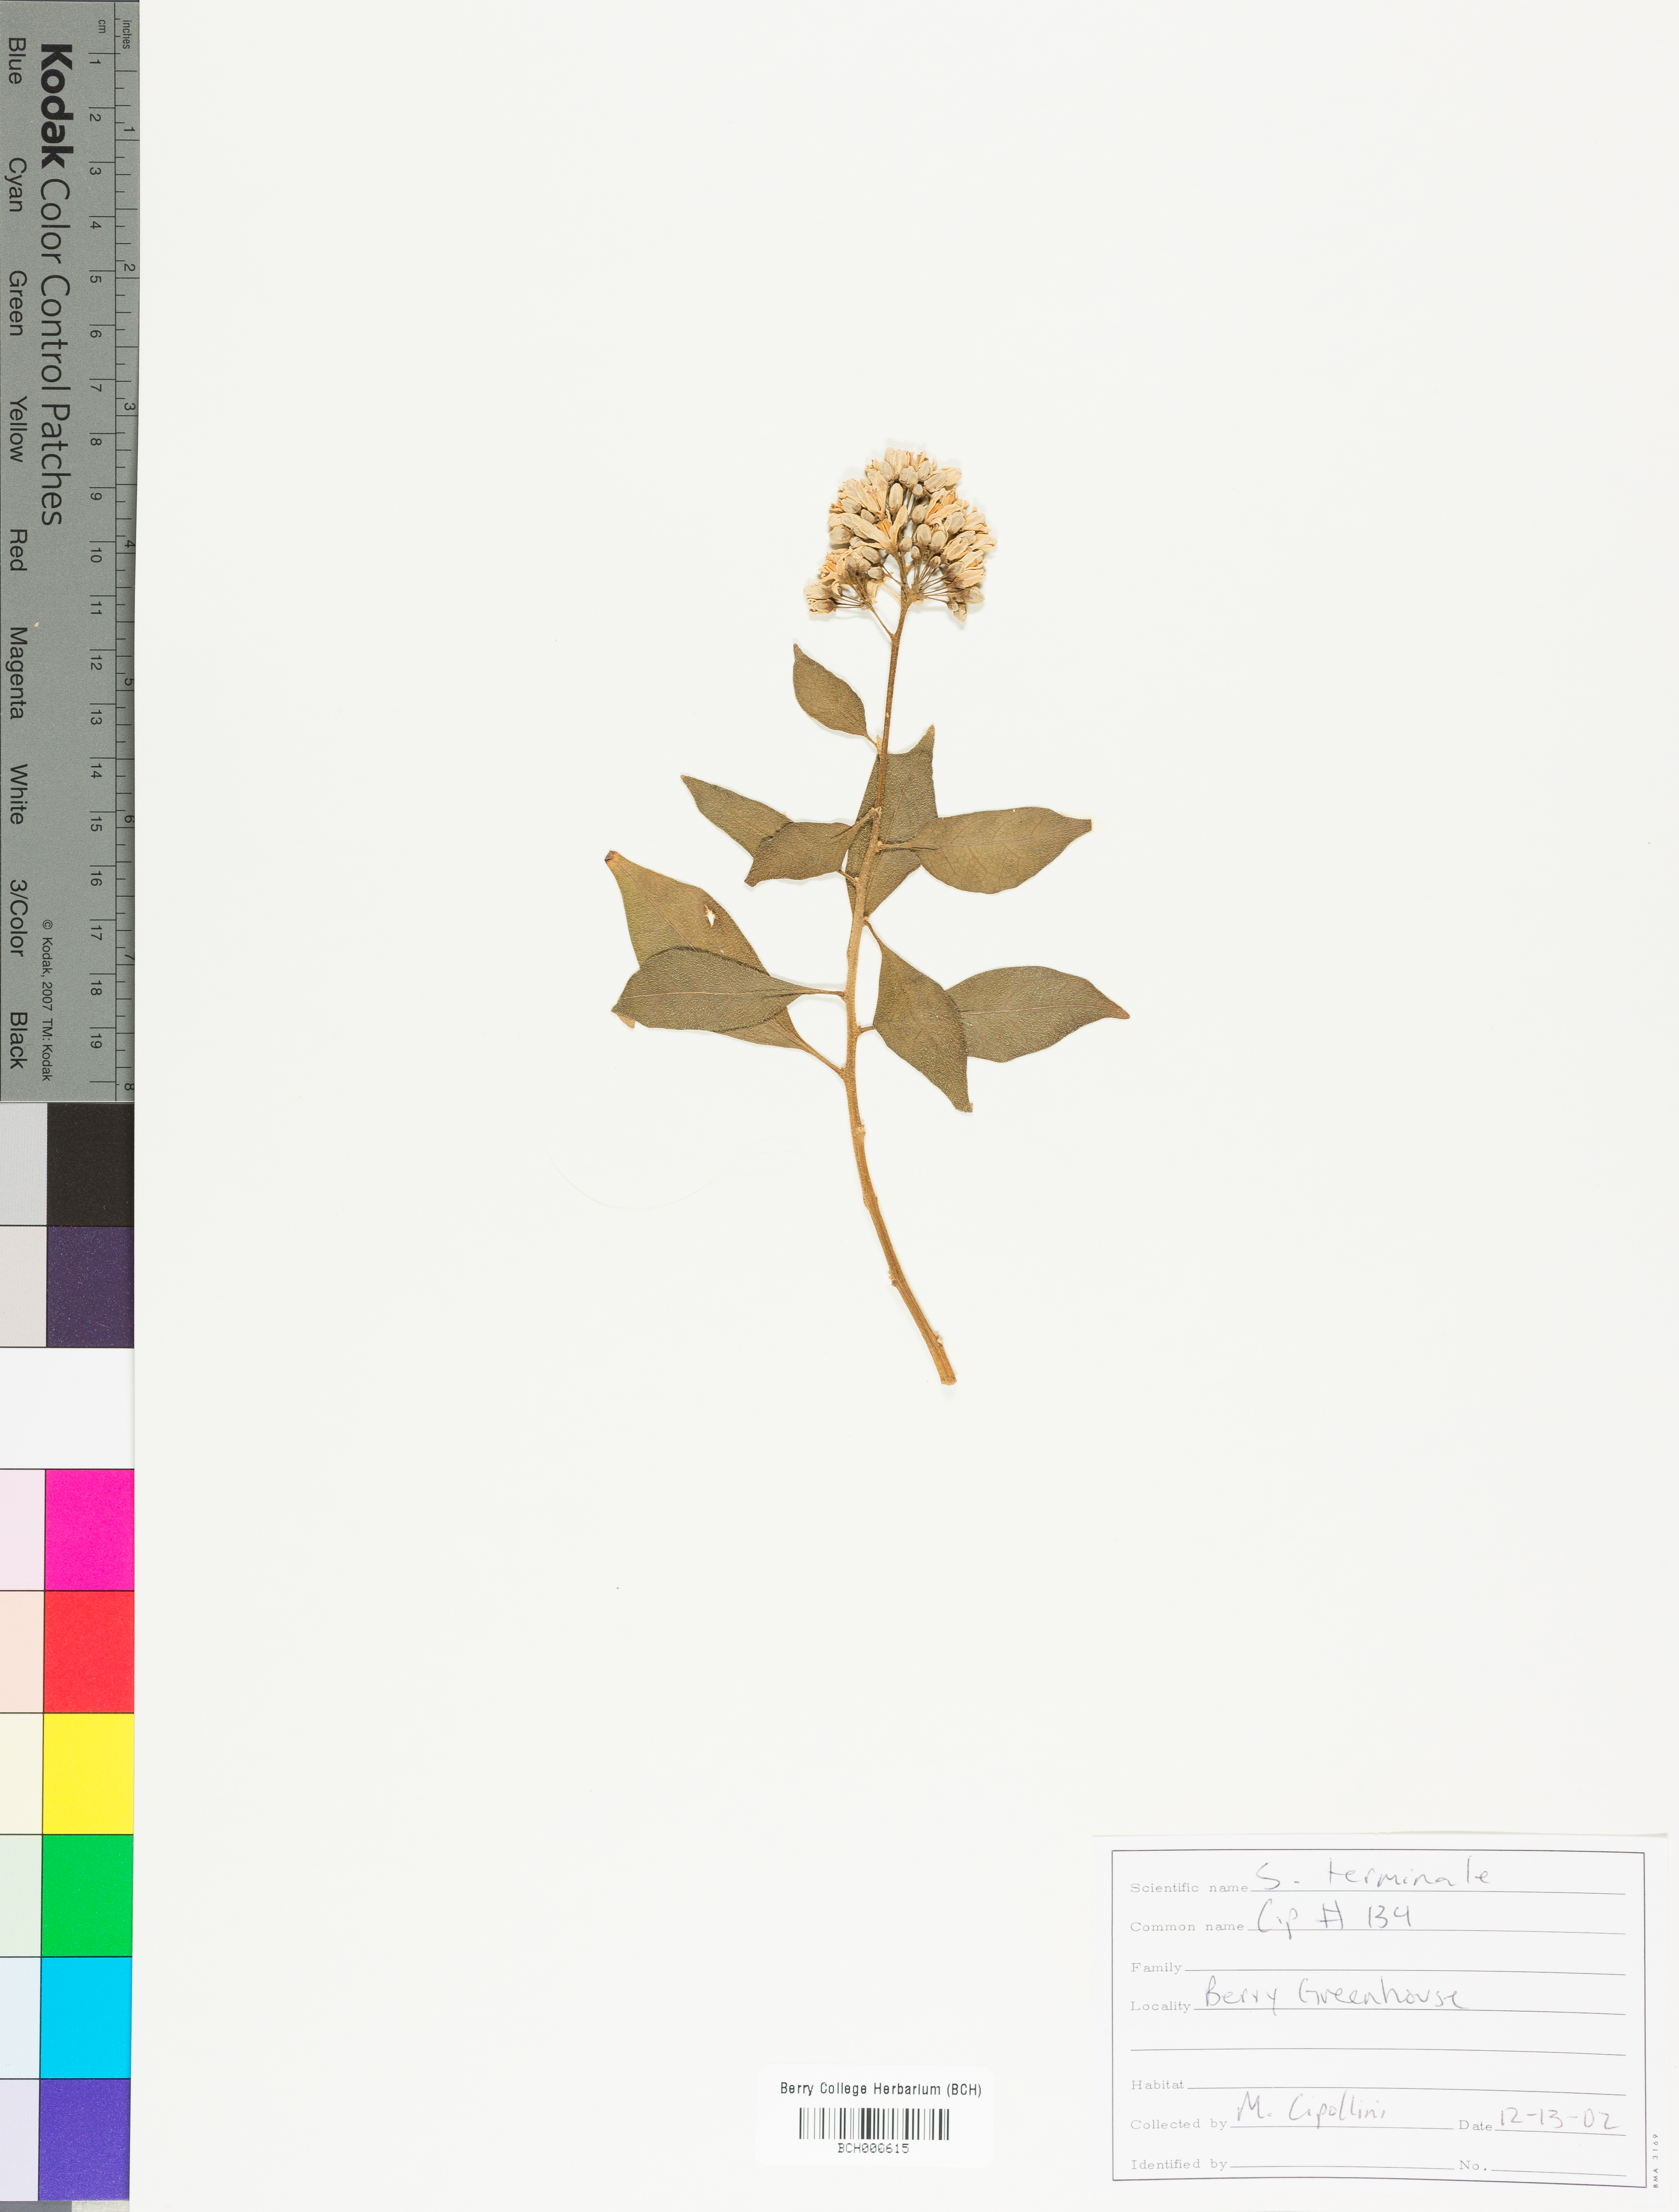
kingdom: Plantae
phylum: Tracheophyta
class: Magnoliopsida
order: Solanales
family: Solanaceae
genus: Solanum
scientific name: Solanum terminale
